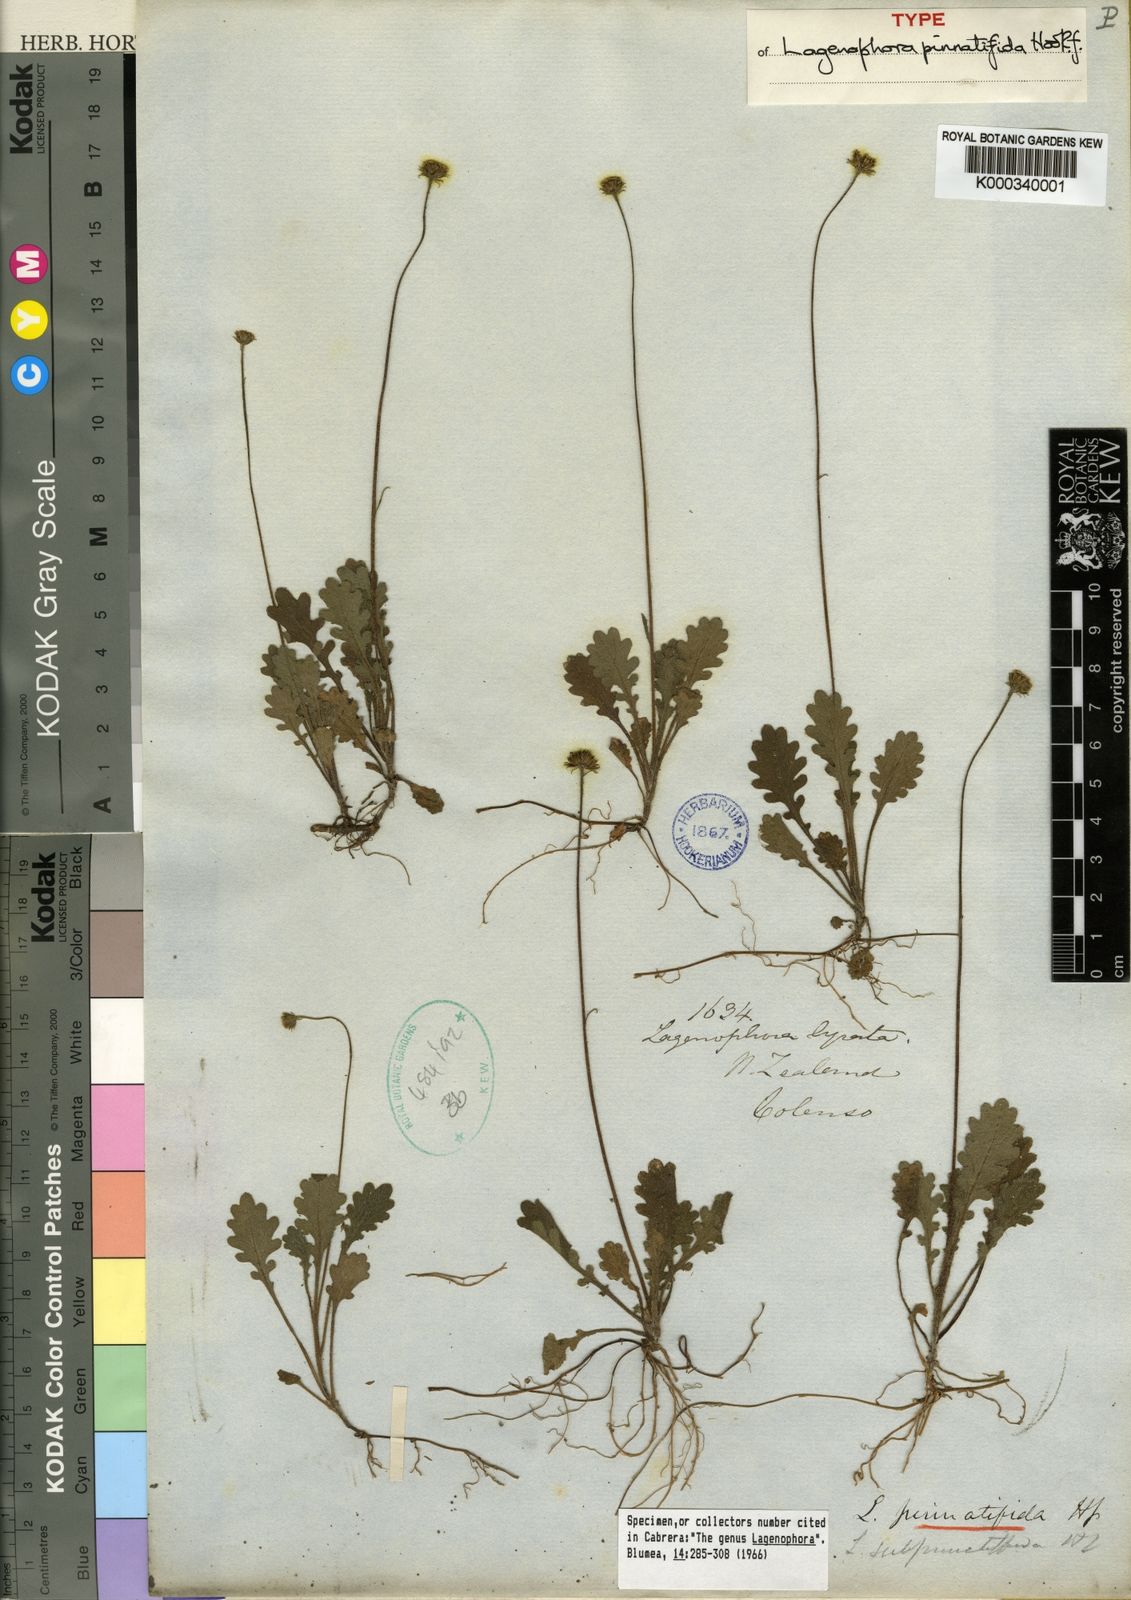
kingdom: Plantae
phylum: Tracheophyta
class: Magnoliopsida
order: Asterales
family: Asteraceae
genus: Lagenophora
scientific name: Lagenophora pinnatifida
